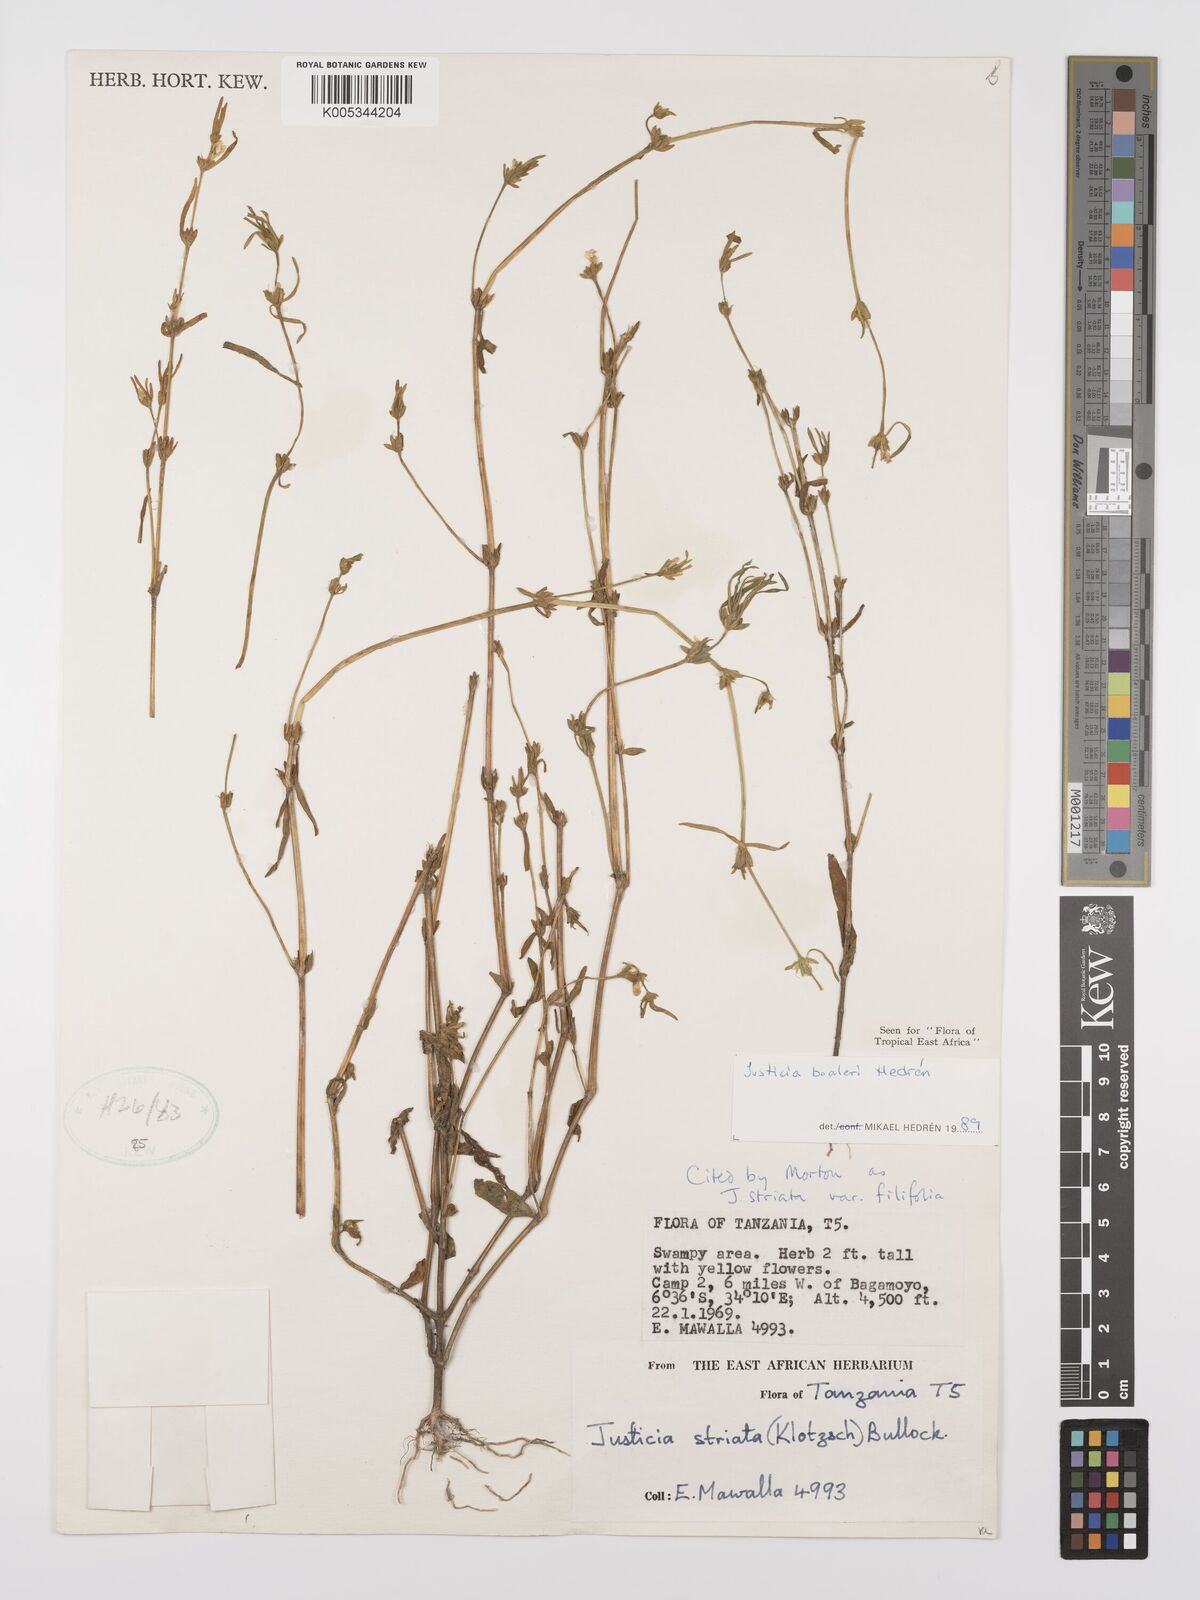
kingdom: Plantae
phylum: Tracheophyta
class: Magnoliopsida
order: Lamiales
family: Acanthaceae
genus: Justicia
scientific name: Justicia boaleri
